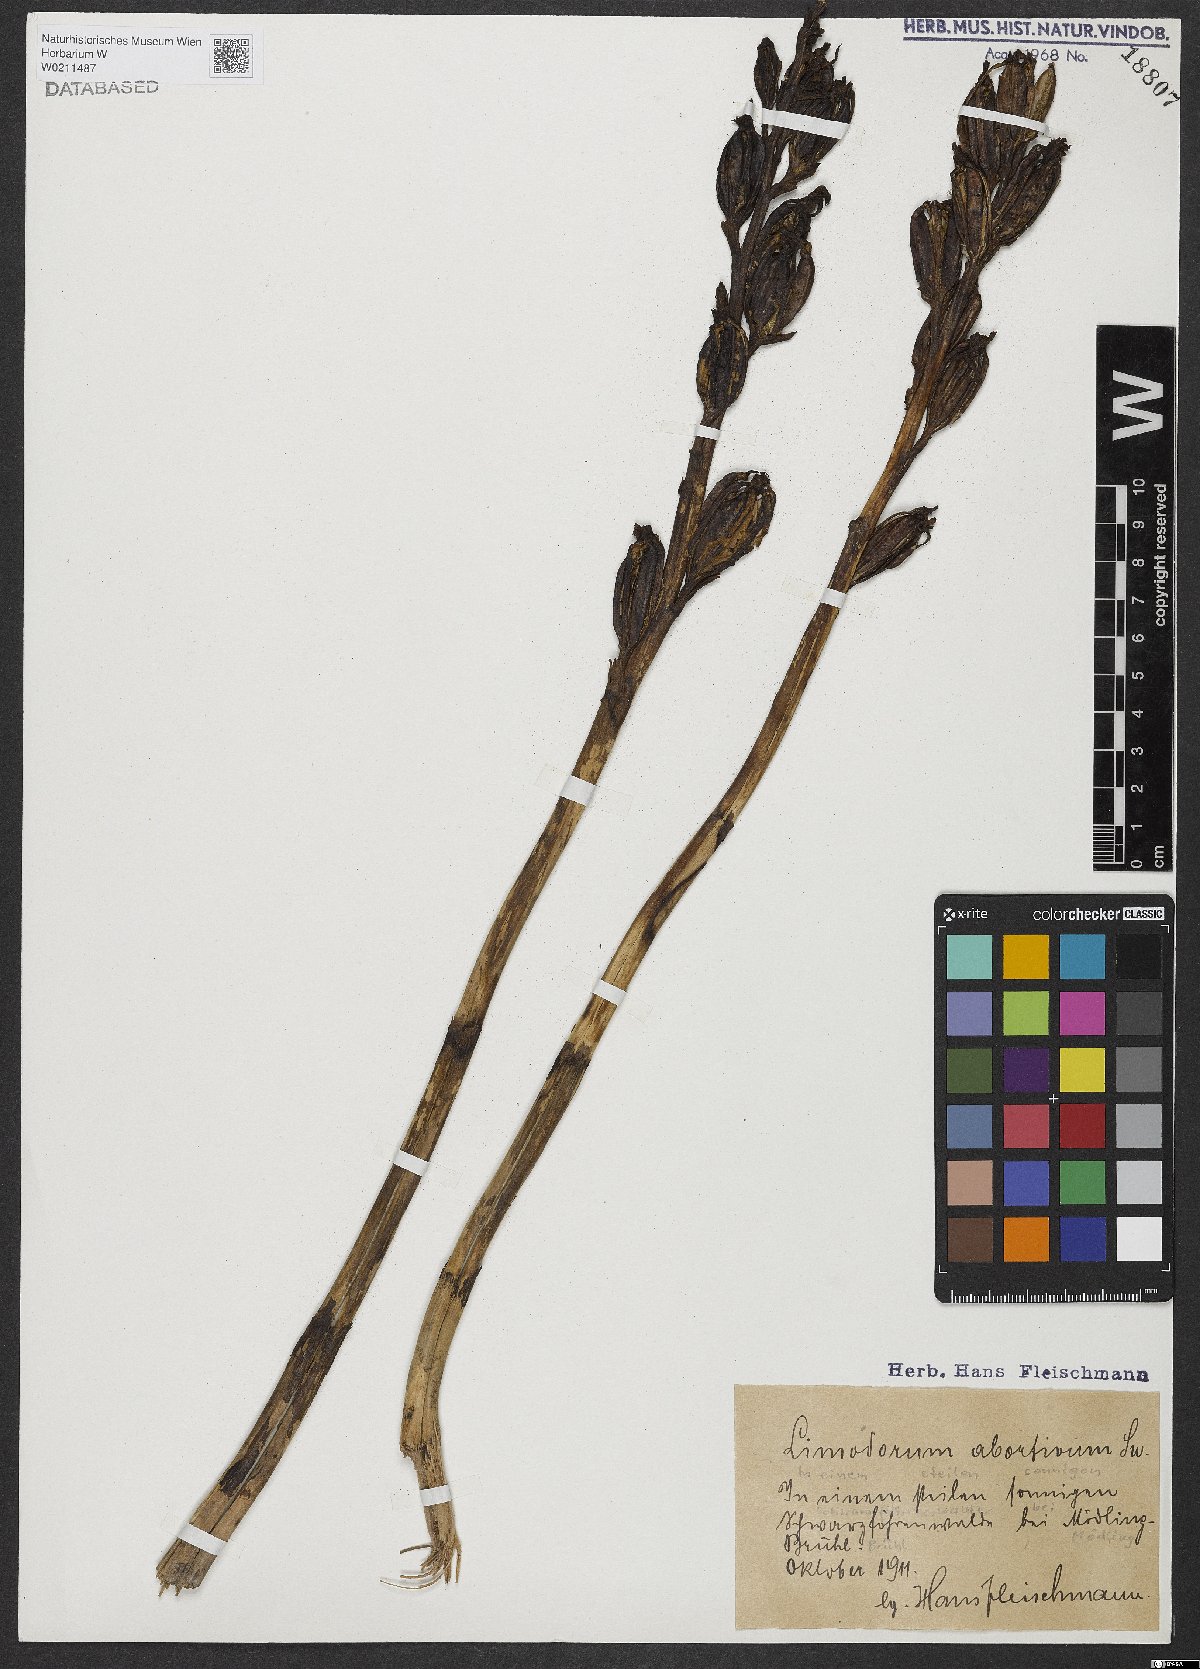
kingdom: Plantae
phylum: Tracheophyta
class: Liliopsida
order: Asparagales
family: Orchidaceae
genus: Limodorum
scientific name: Limodorum abortivum
